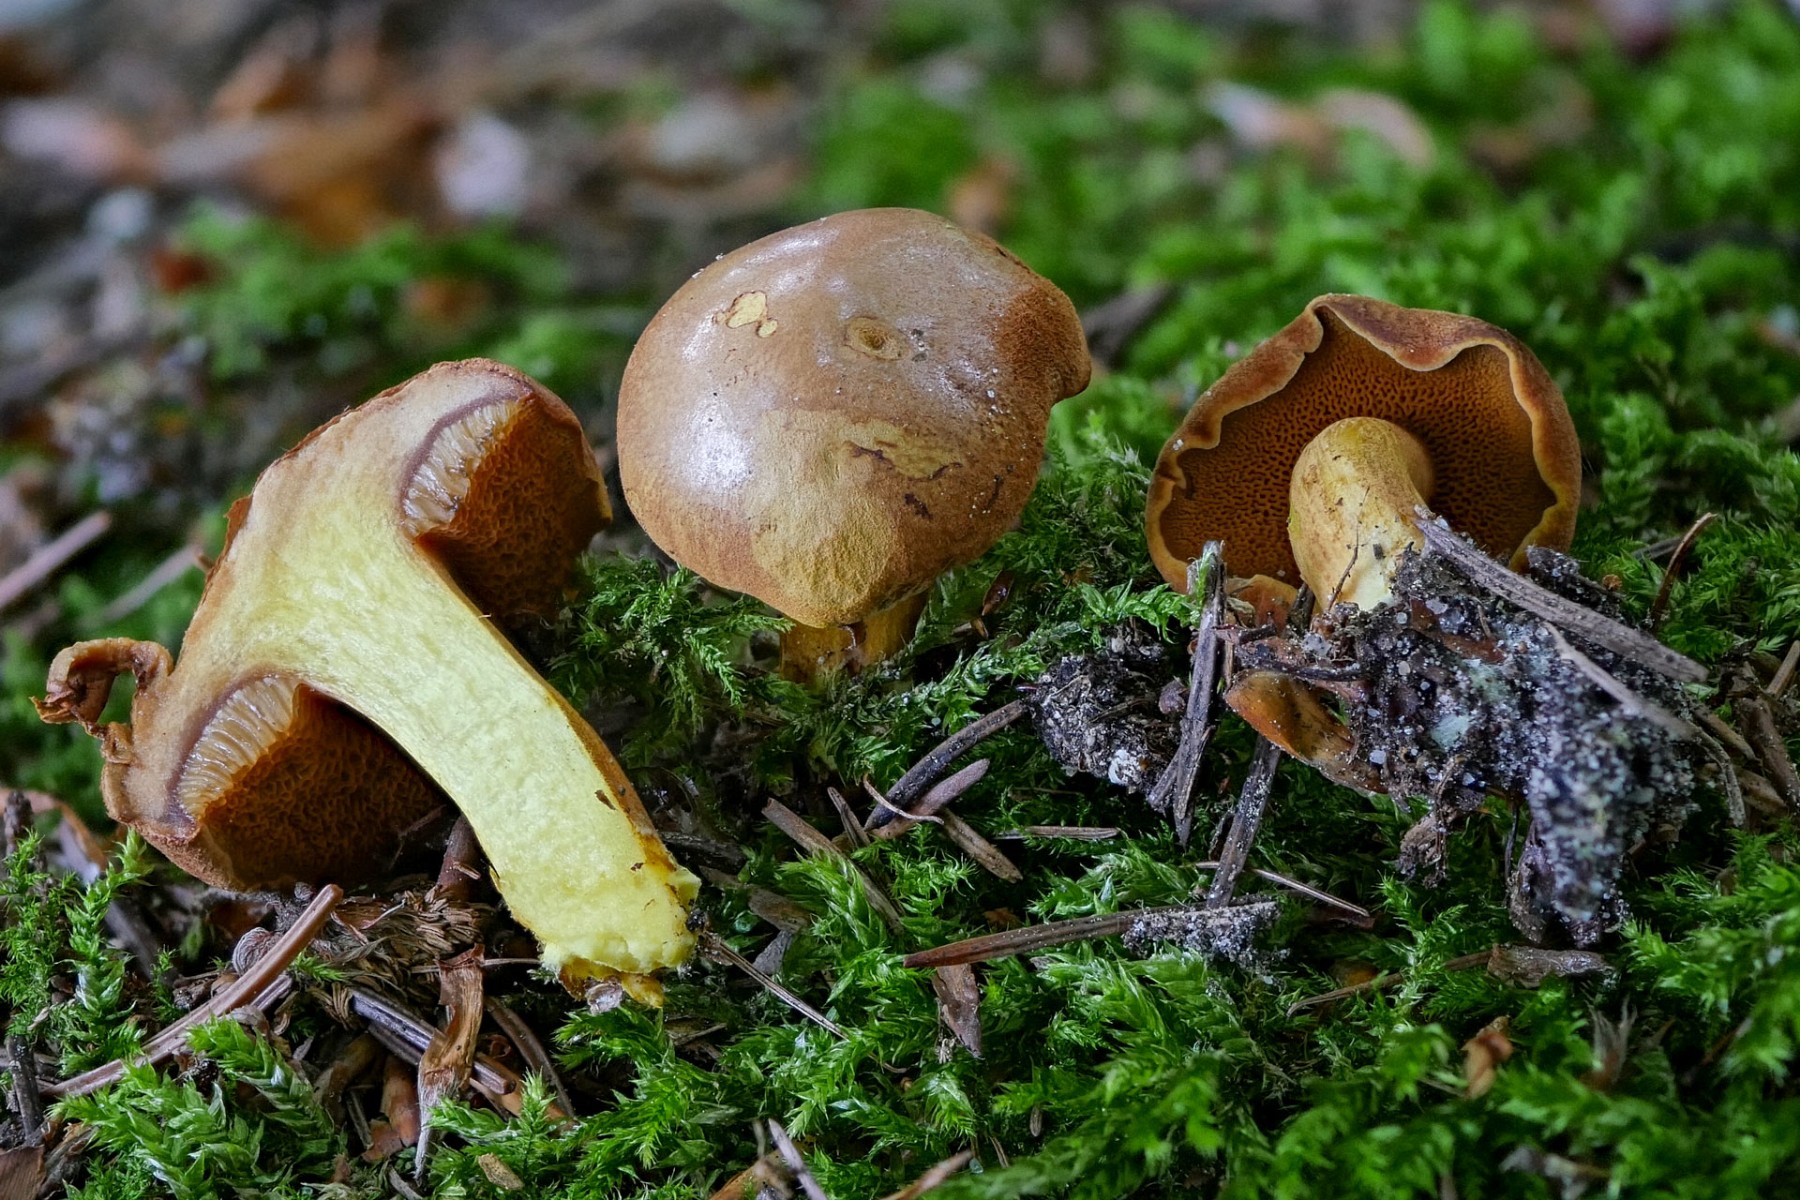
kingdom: Fungi
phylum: Basidiomycota
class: Agaricomycetes
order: Boletales
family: Boletaceae
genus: Chalciporus
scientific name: Chalciporus piperatus
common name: peberrørhat
